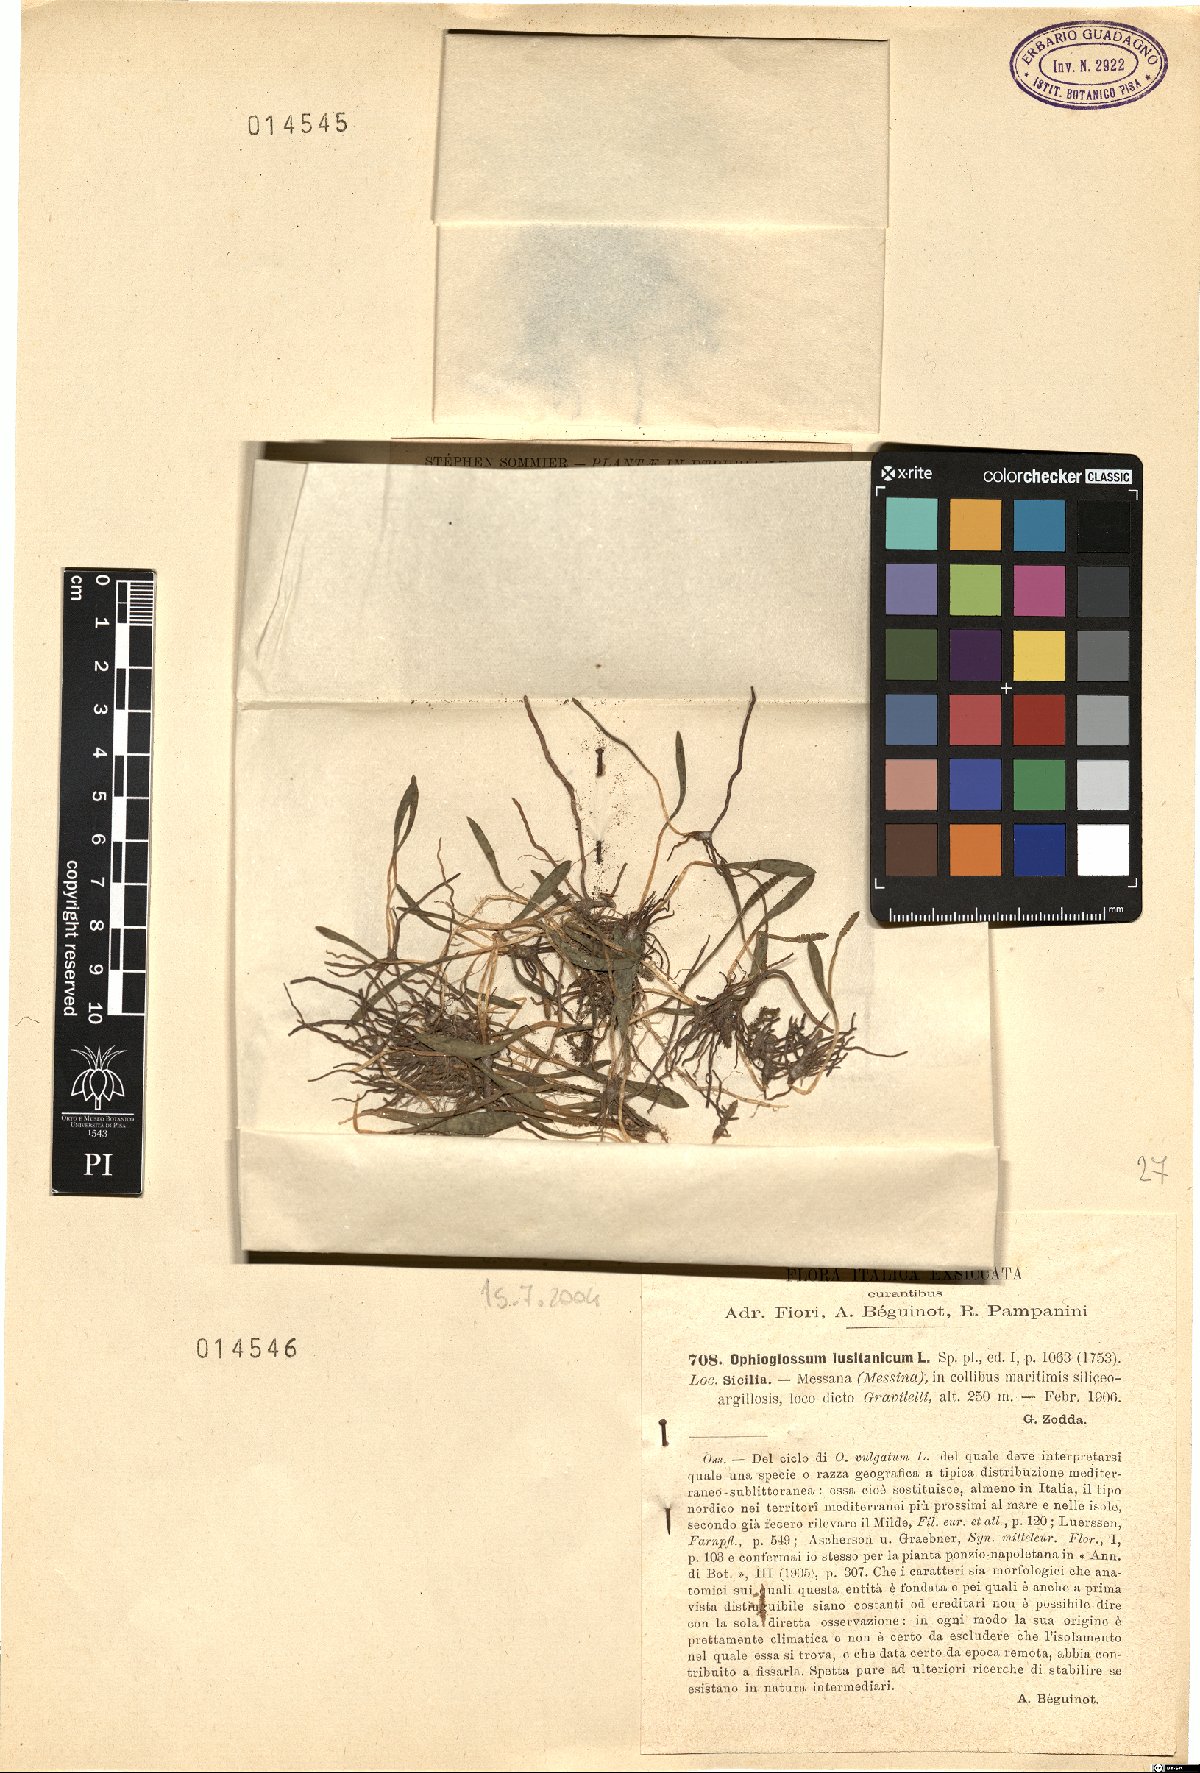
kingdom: Plantae
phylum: Tracheophyta
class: Polypodiopsida
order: Ophioglossales
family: Ophioglossaceae
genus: Ophioglossum
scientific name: Ophioglossum lusitanicum
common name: Least adder's-tongue
